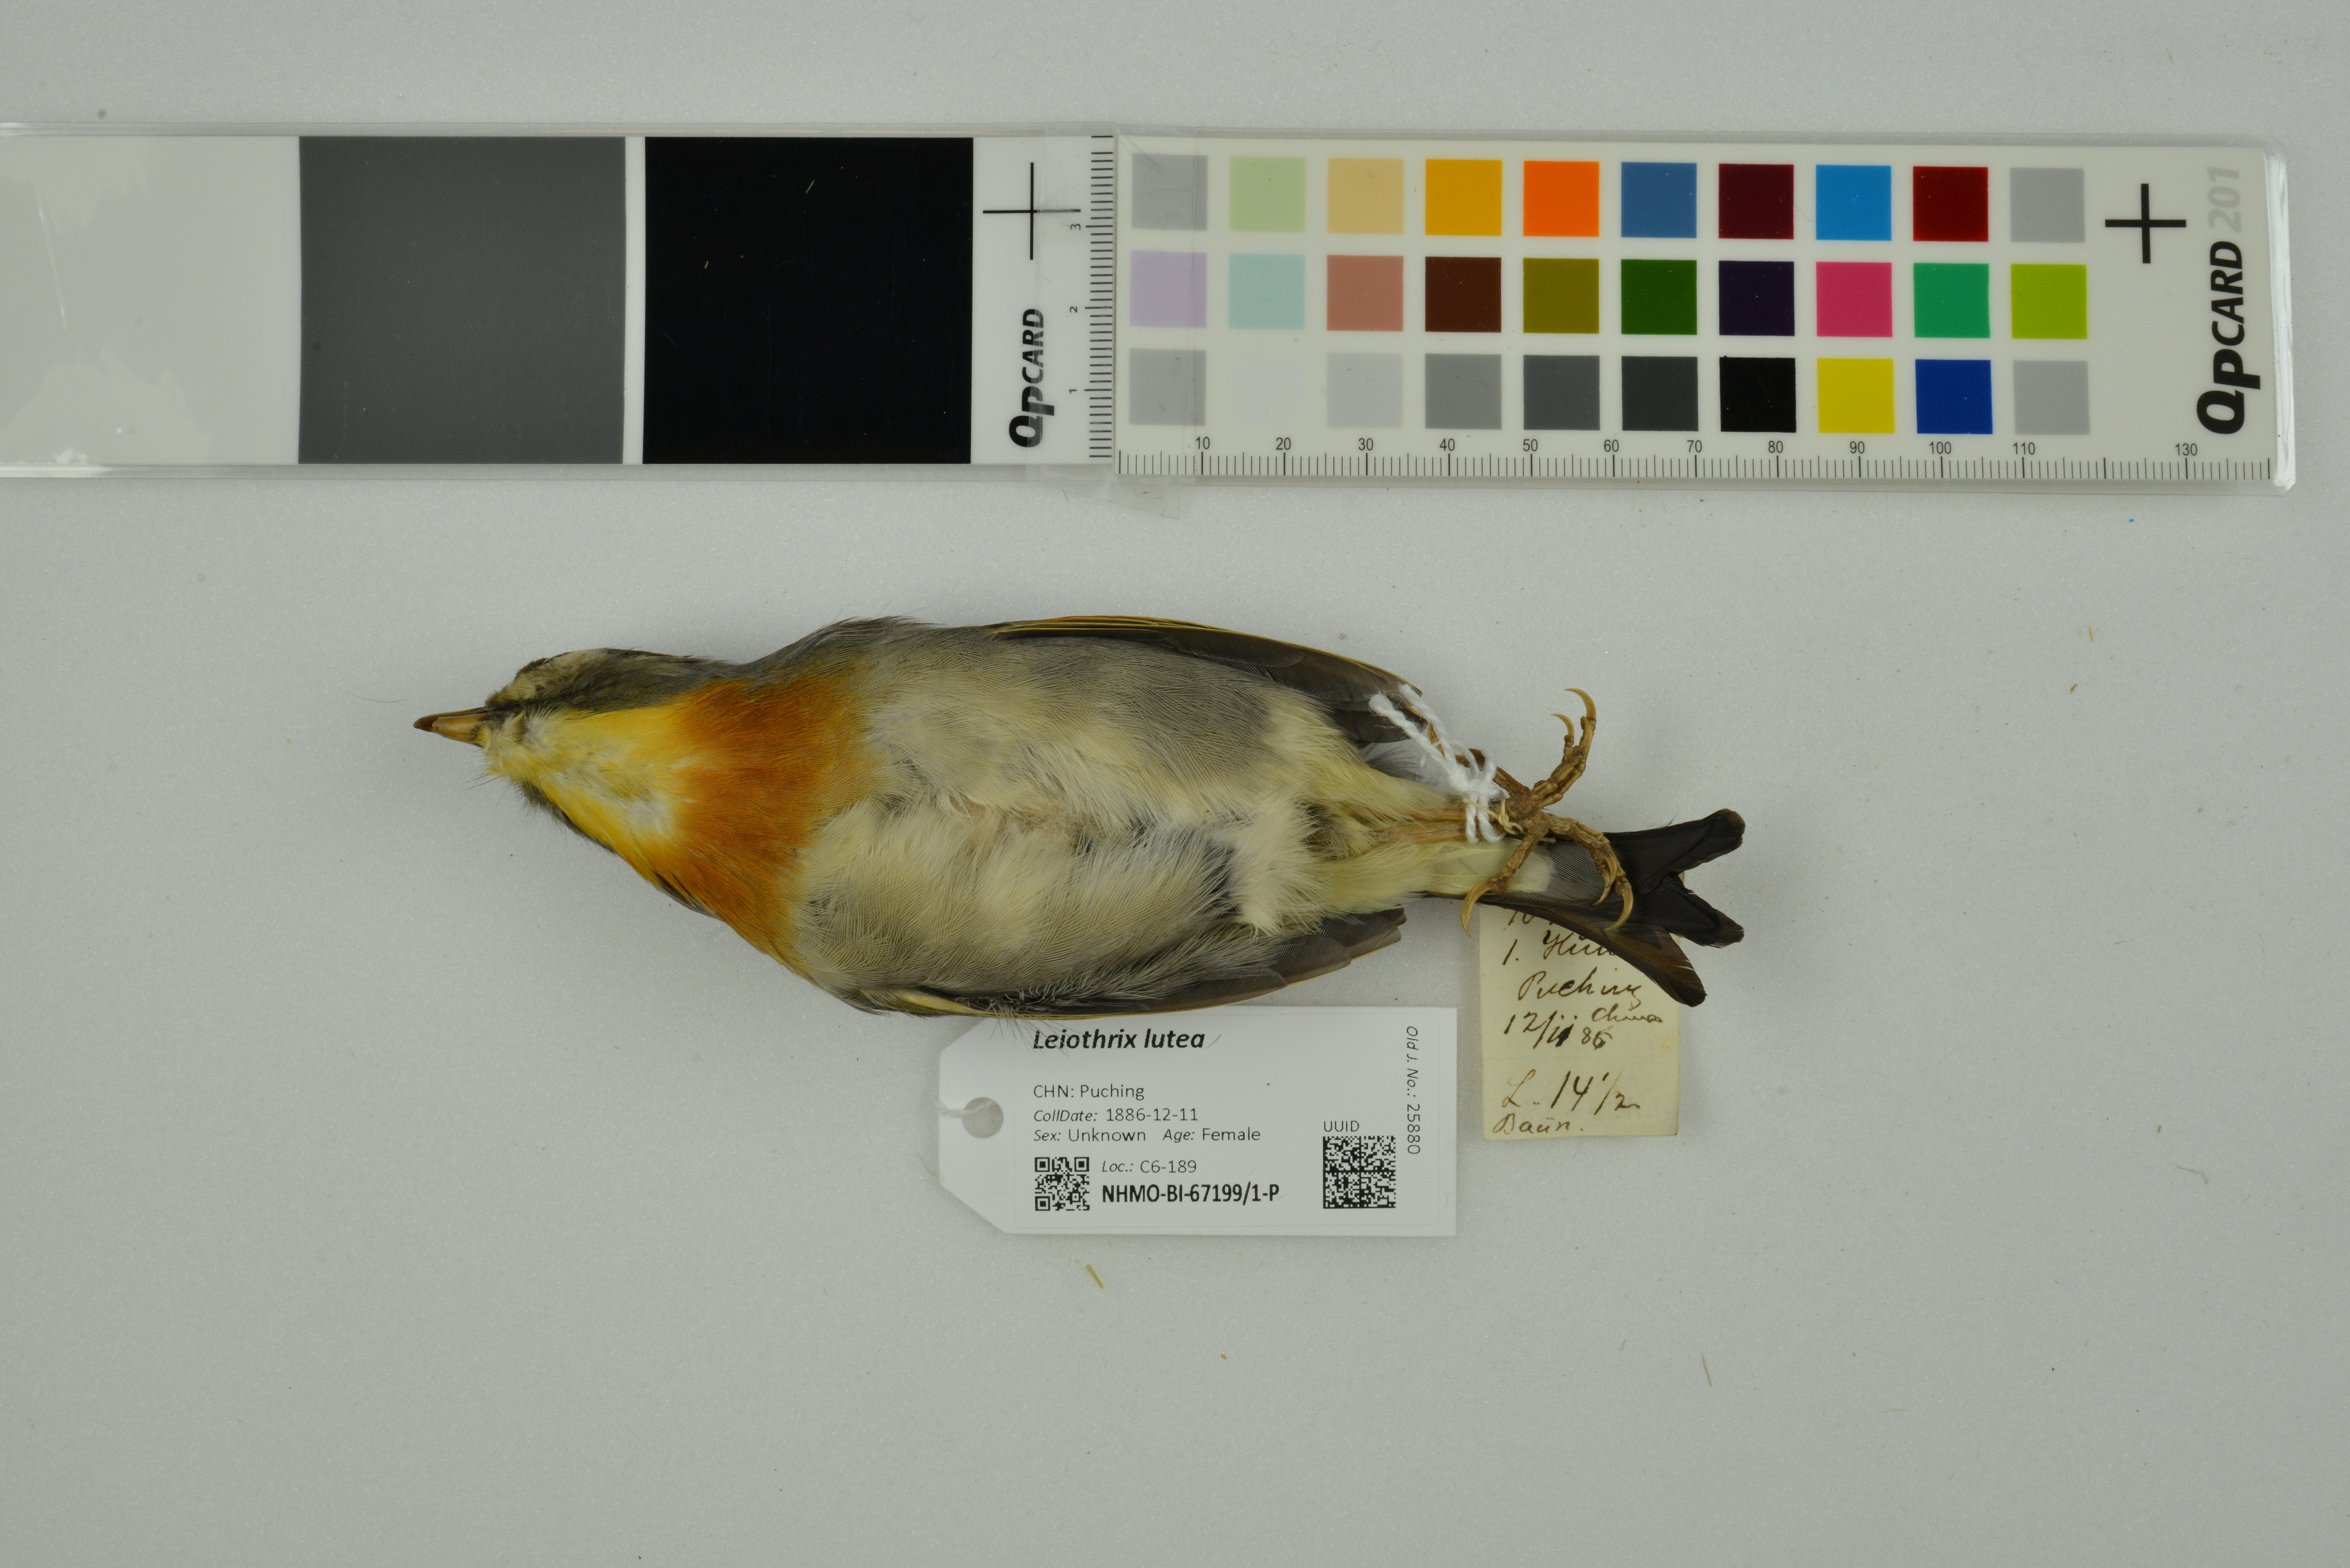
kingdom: Animalia
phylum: Chordata
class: Aves
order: Passeriformes
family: Leiothrichidae
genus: Leiothrix
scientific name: Leiothrix lutea
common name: Red-billed leiothrix
